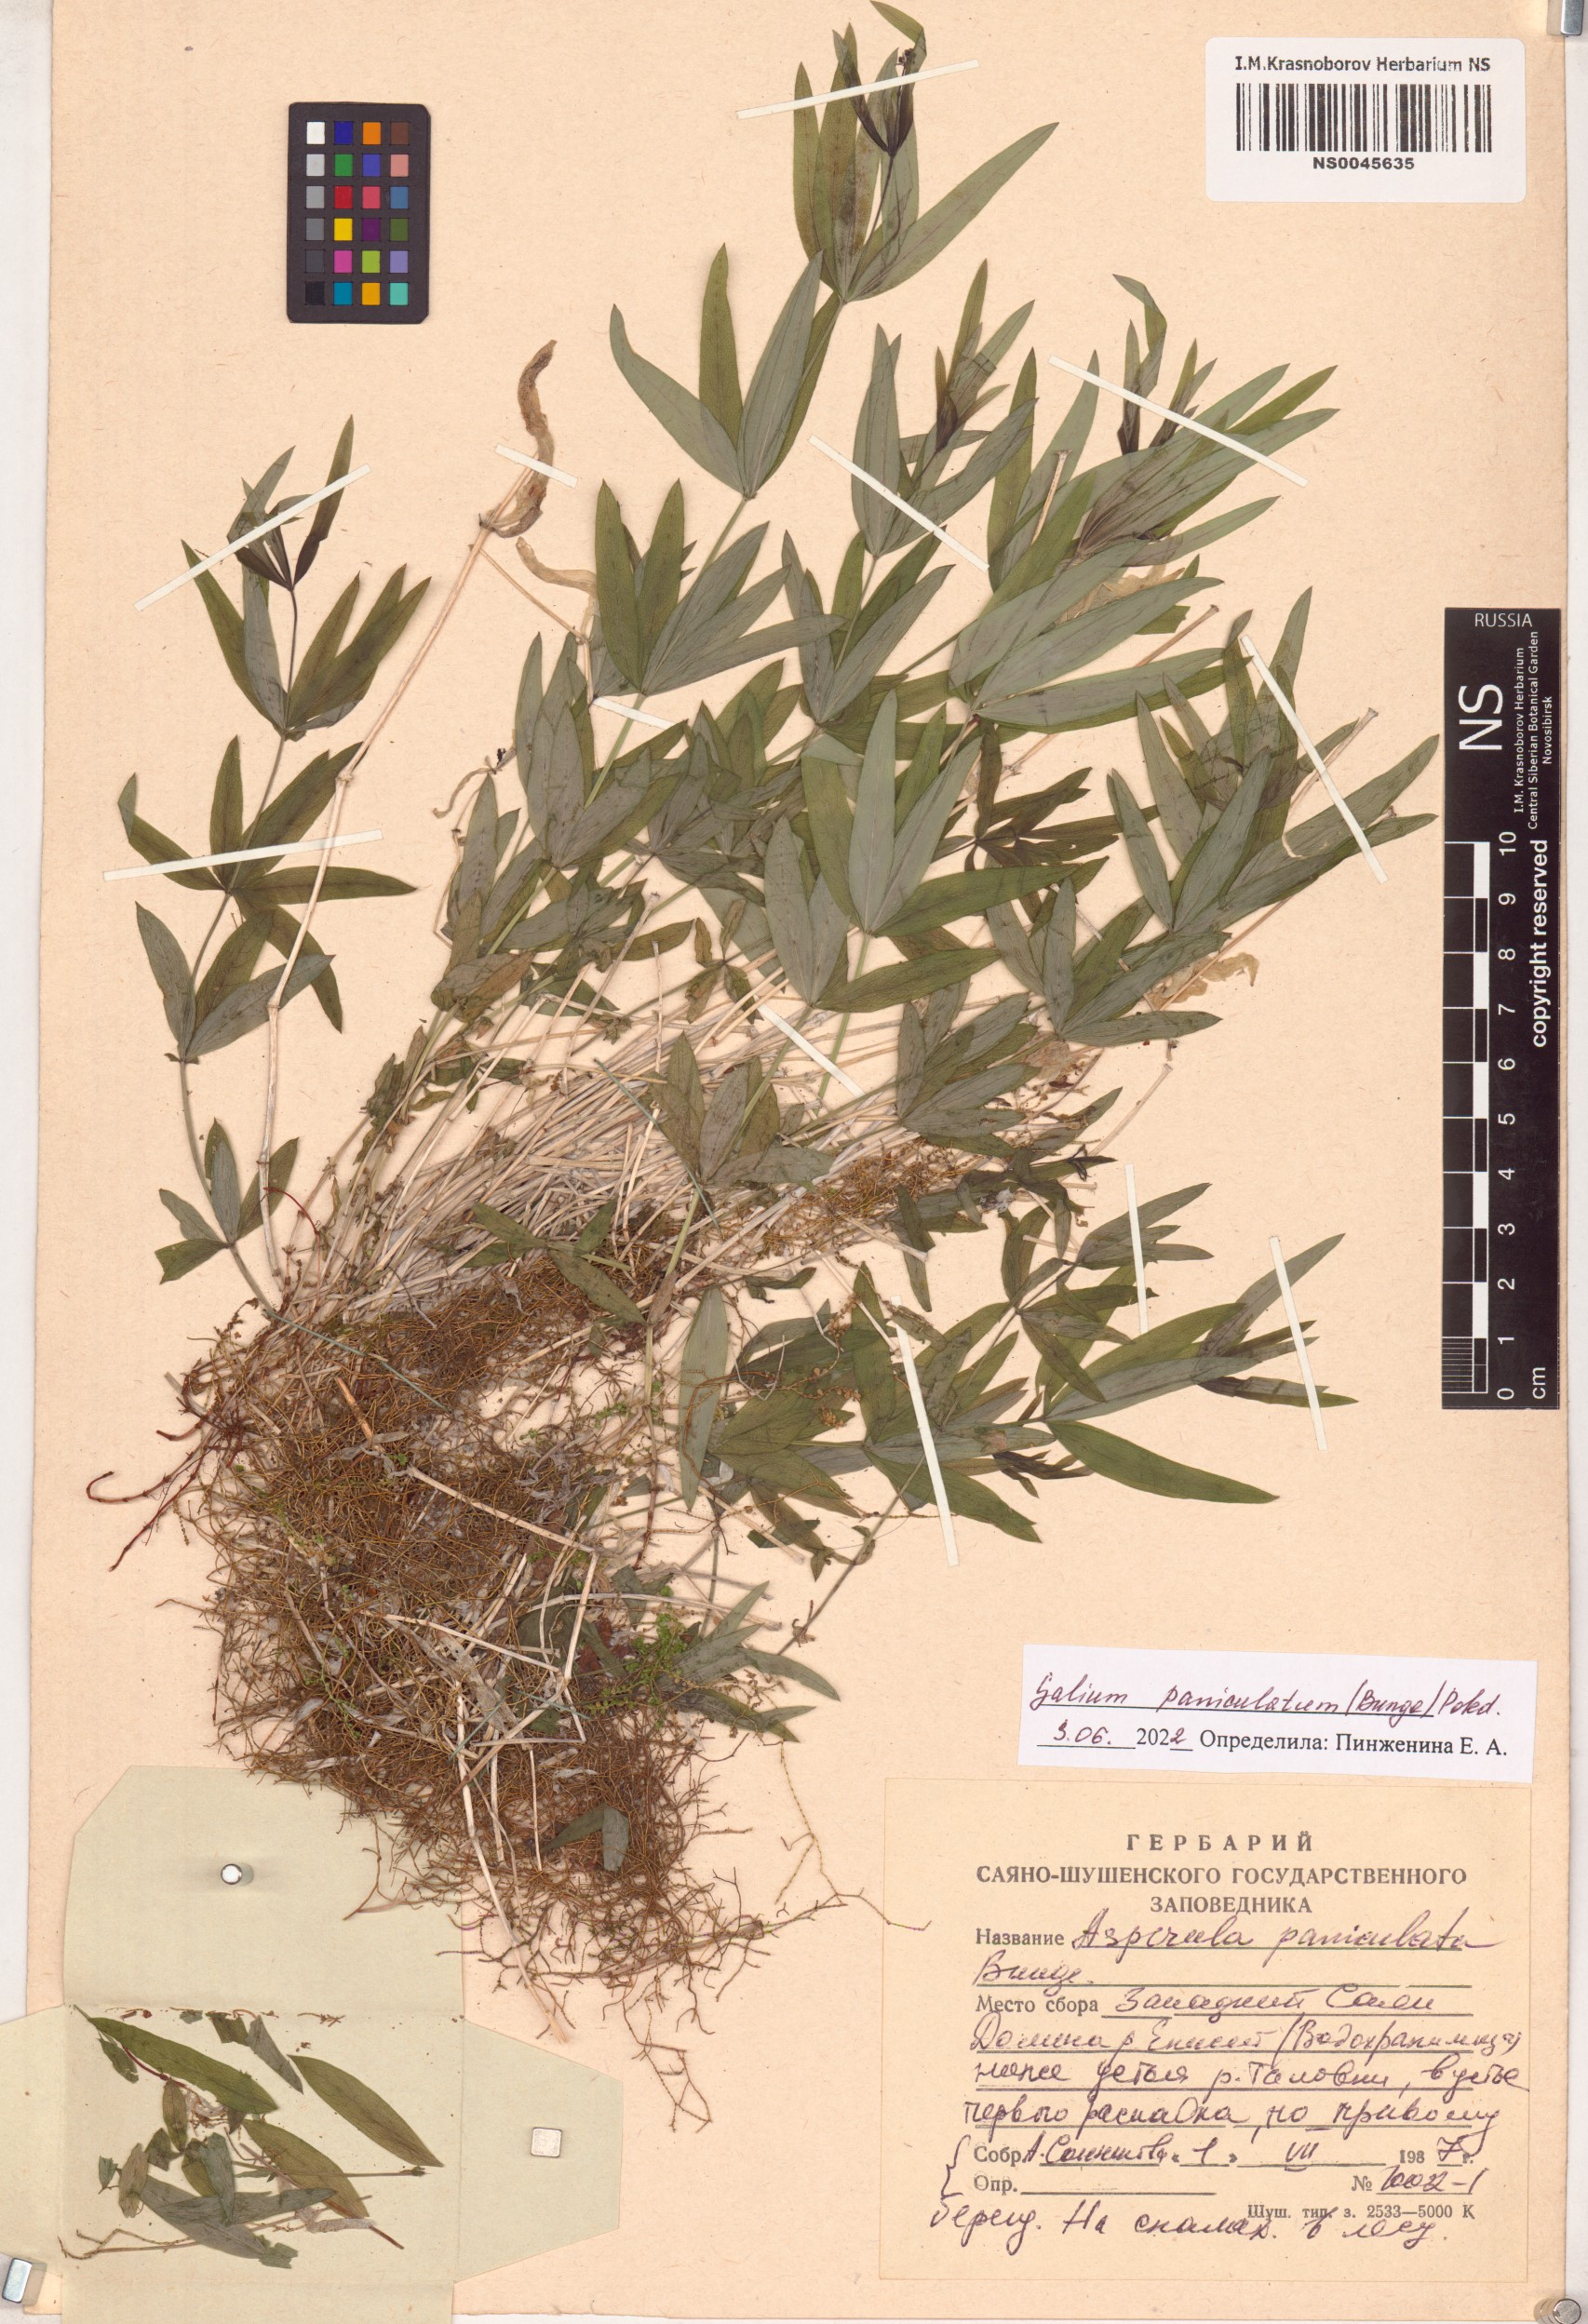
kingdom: Plantae
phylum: Tracheophyta
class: Magnoliopsida
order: Gentianales
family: Rubiaceae
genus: Galium
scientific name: Galium paniculatum
